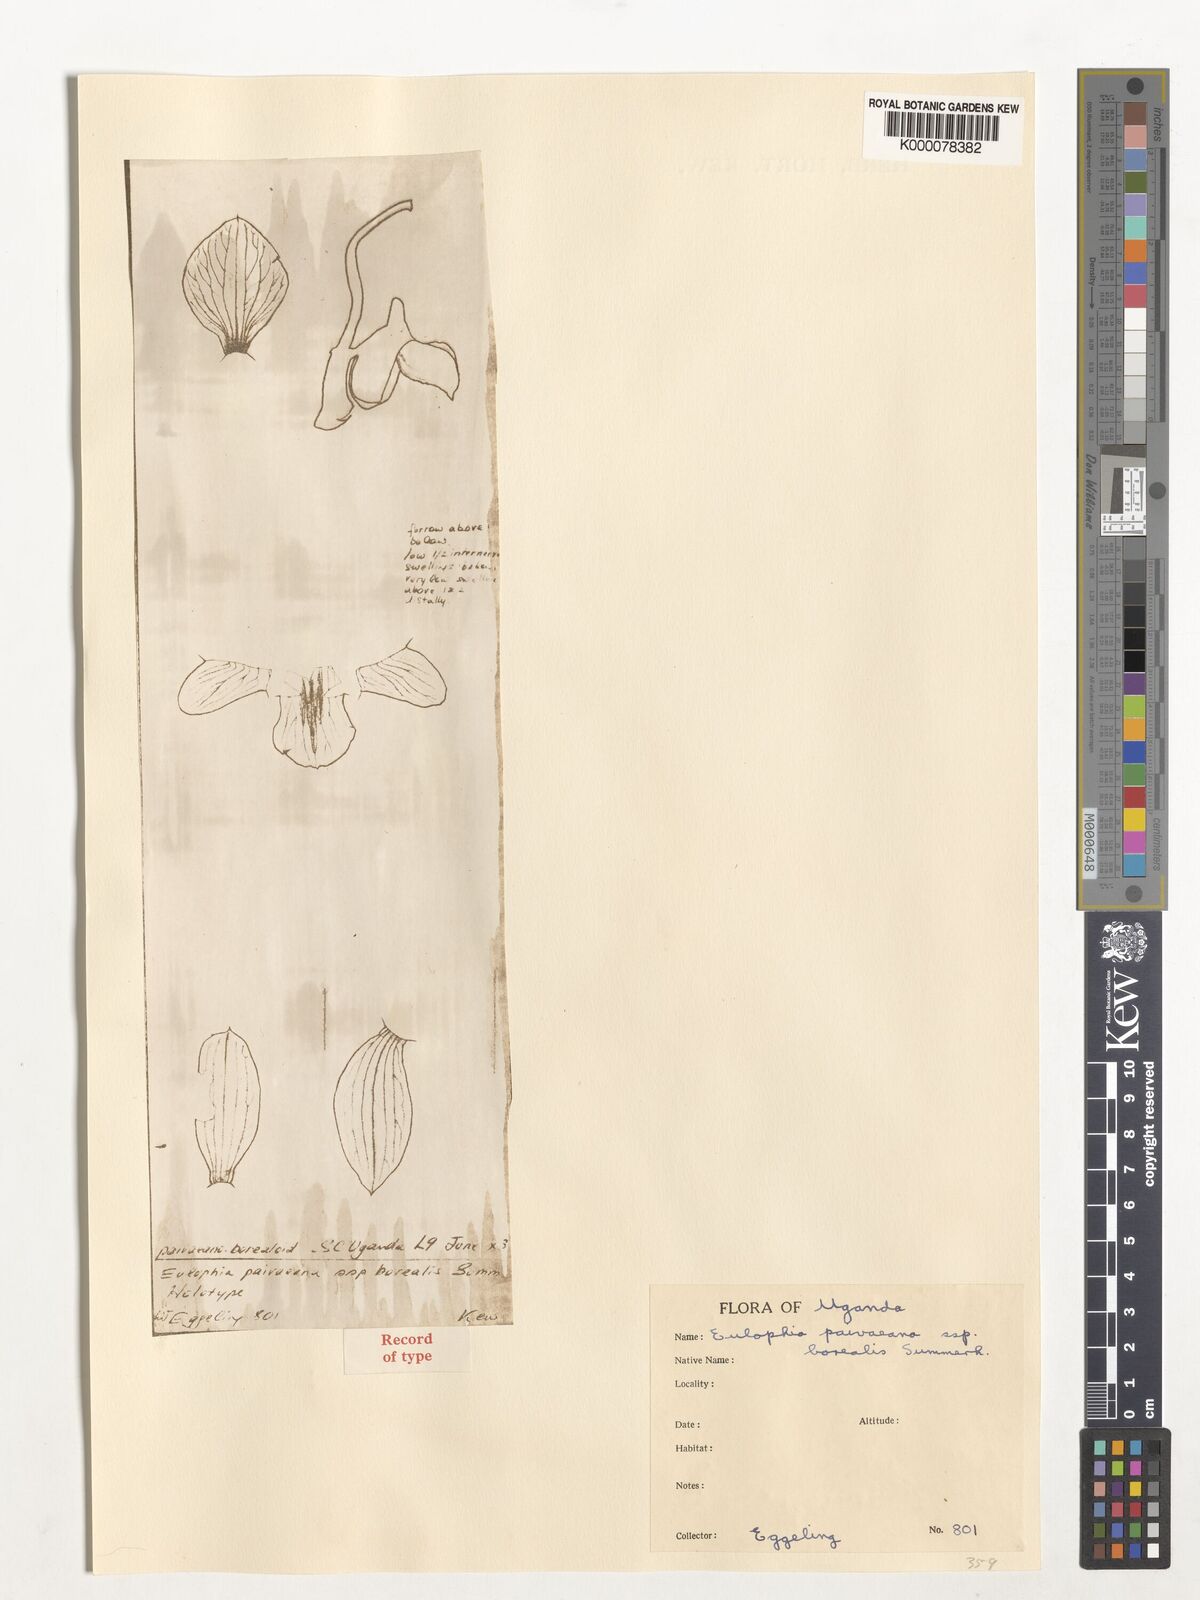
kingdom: Plantae
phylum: Tracheophyta
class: Liliopsida
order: Asparagales
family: Orchidaceae
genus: Eulophia
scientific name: Eulophia streptopetala
